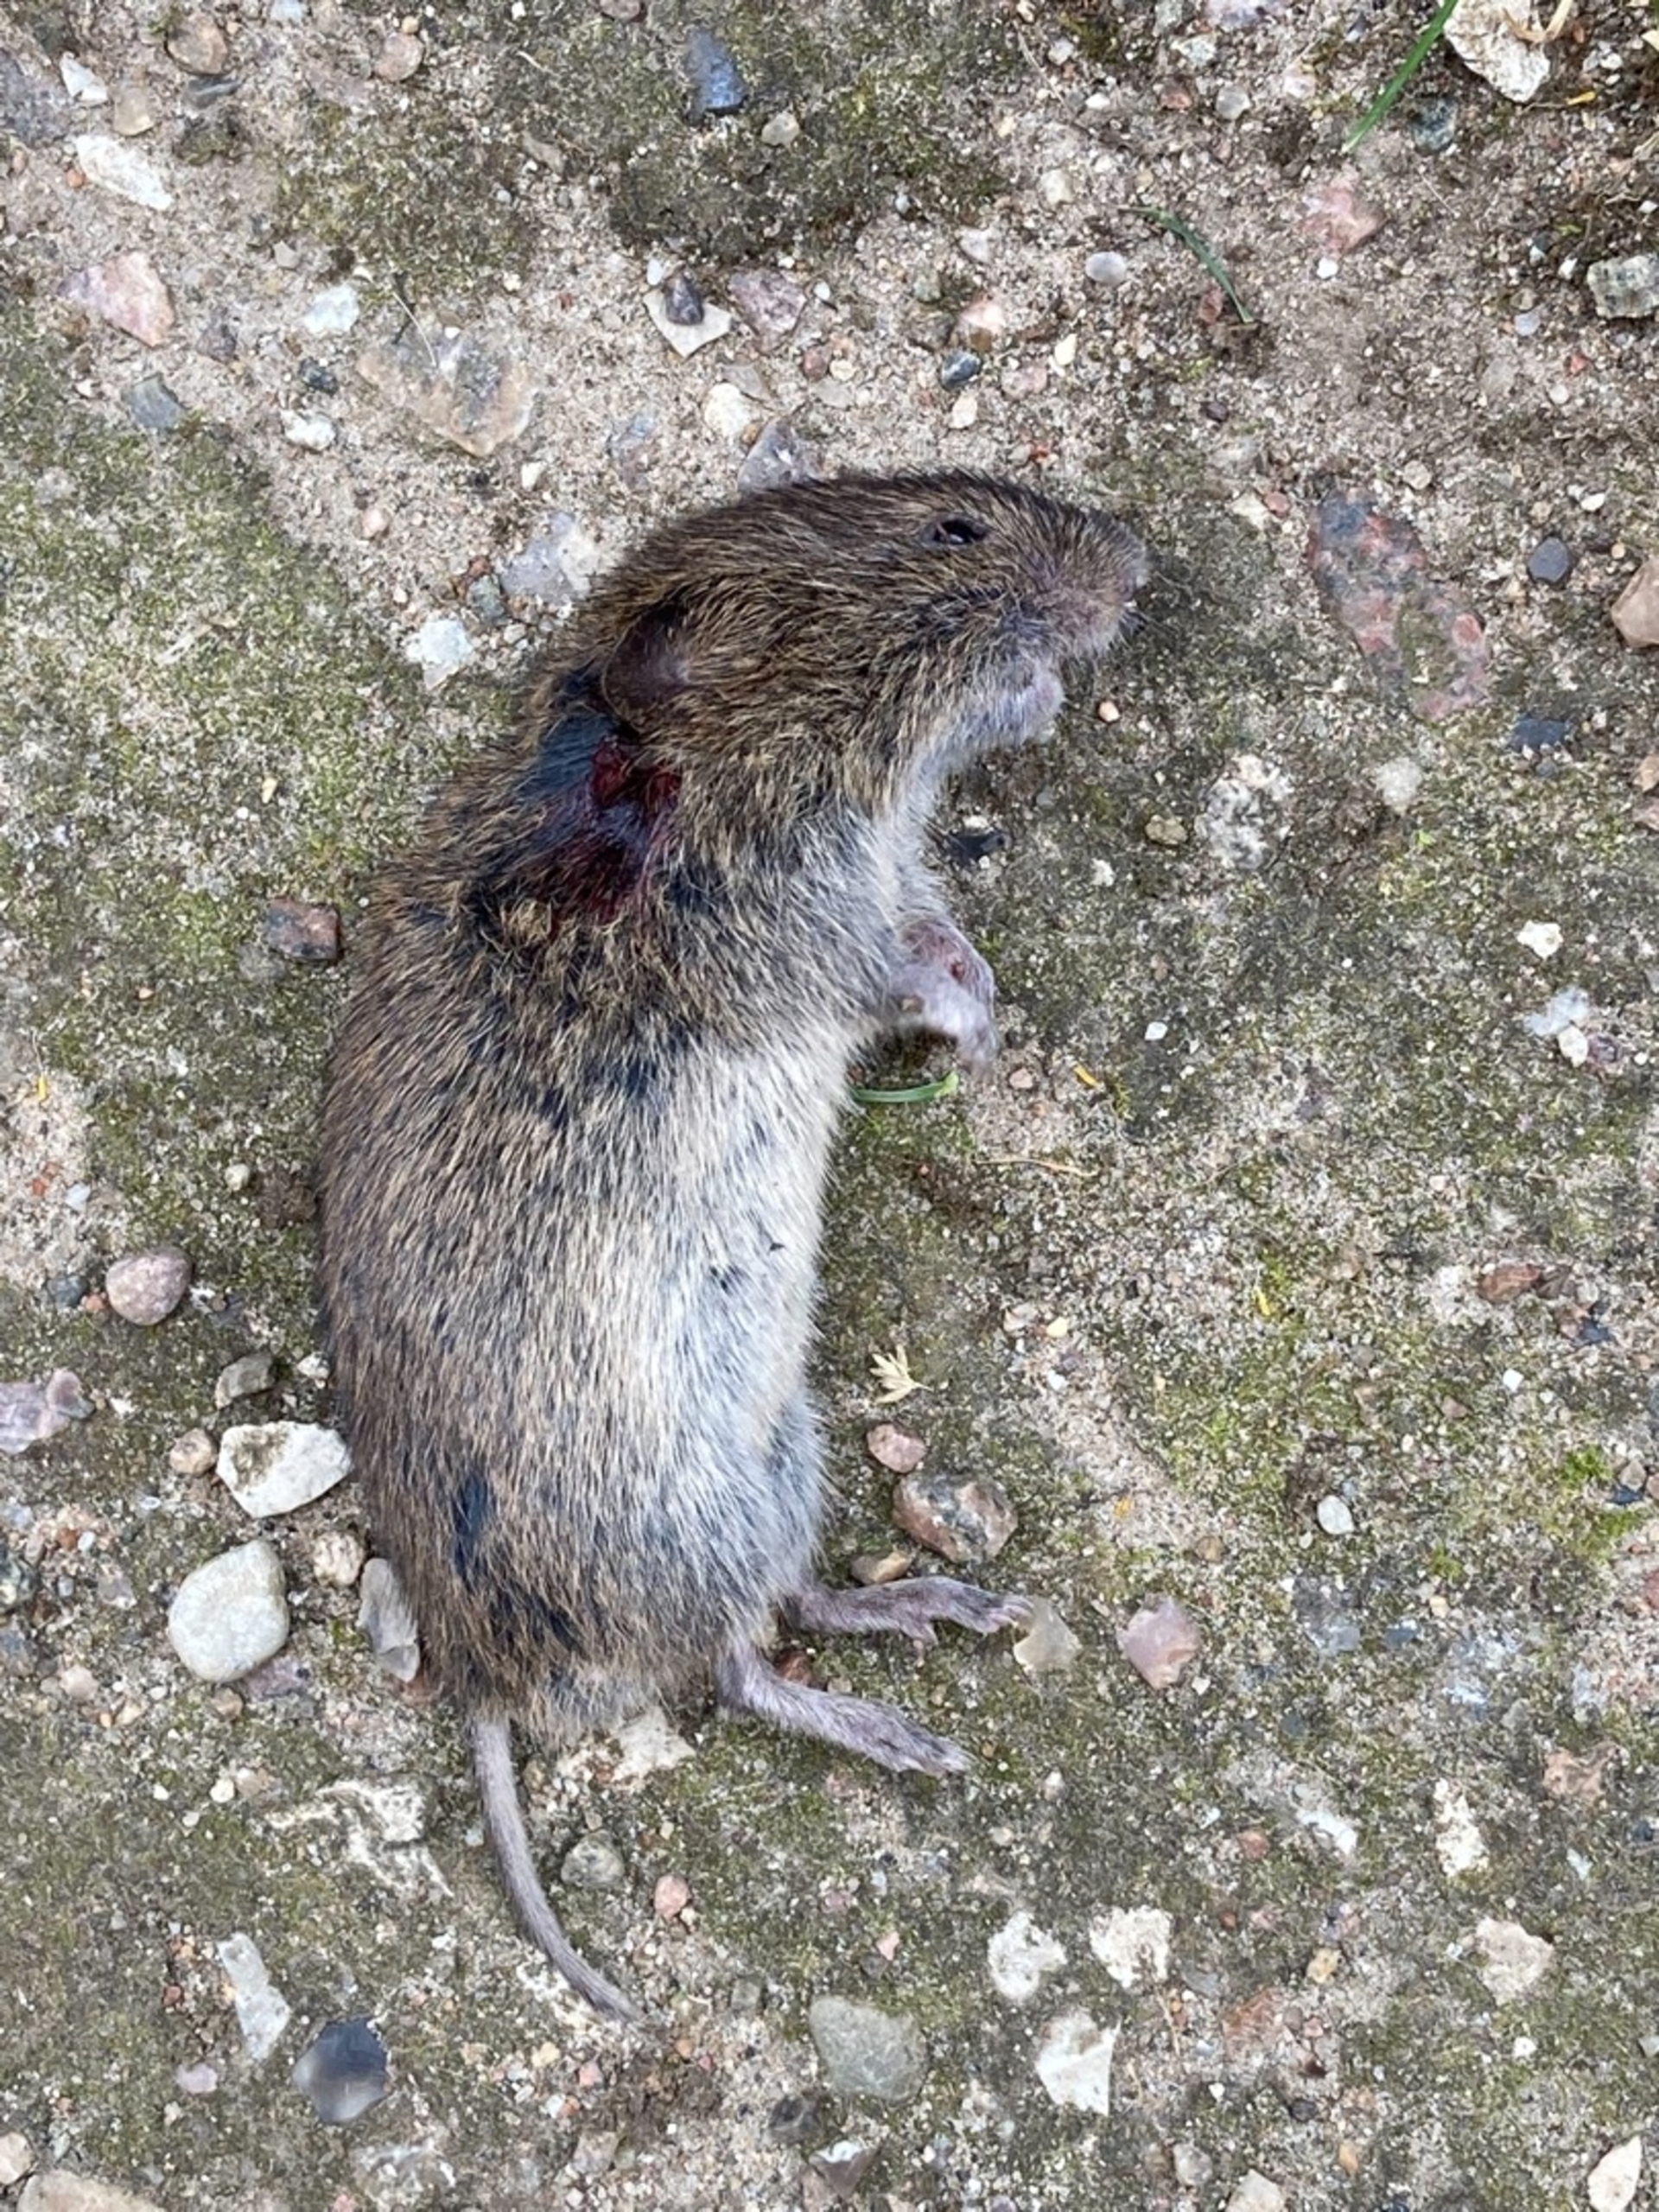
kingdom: Animalia
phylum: Chordata
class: Mammalia
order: Rodentia
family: Cricetidae
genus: Microtus
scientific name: Microtus agrestis
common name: Almindelig markmus
